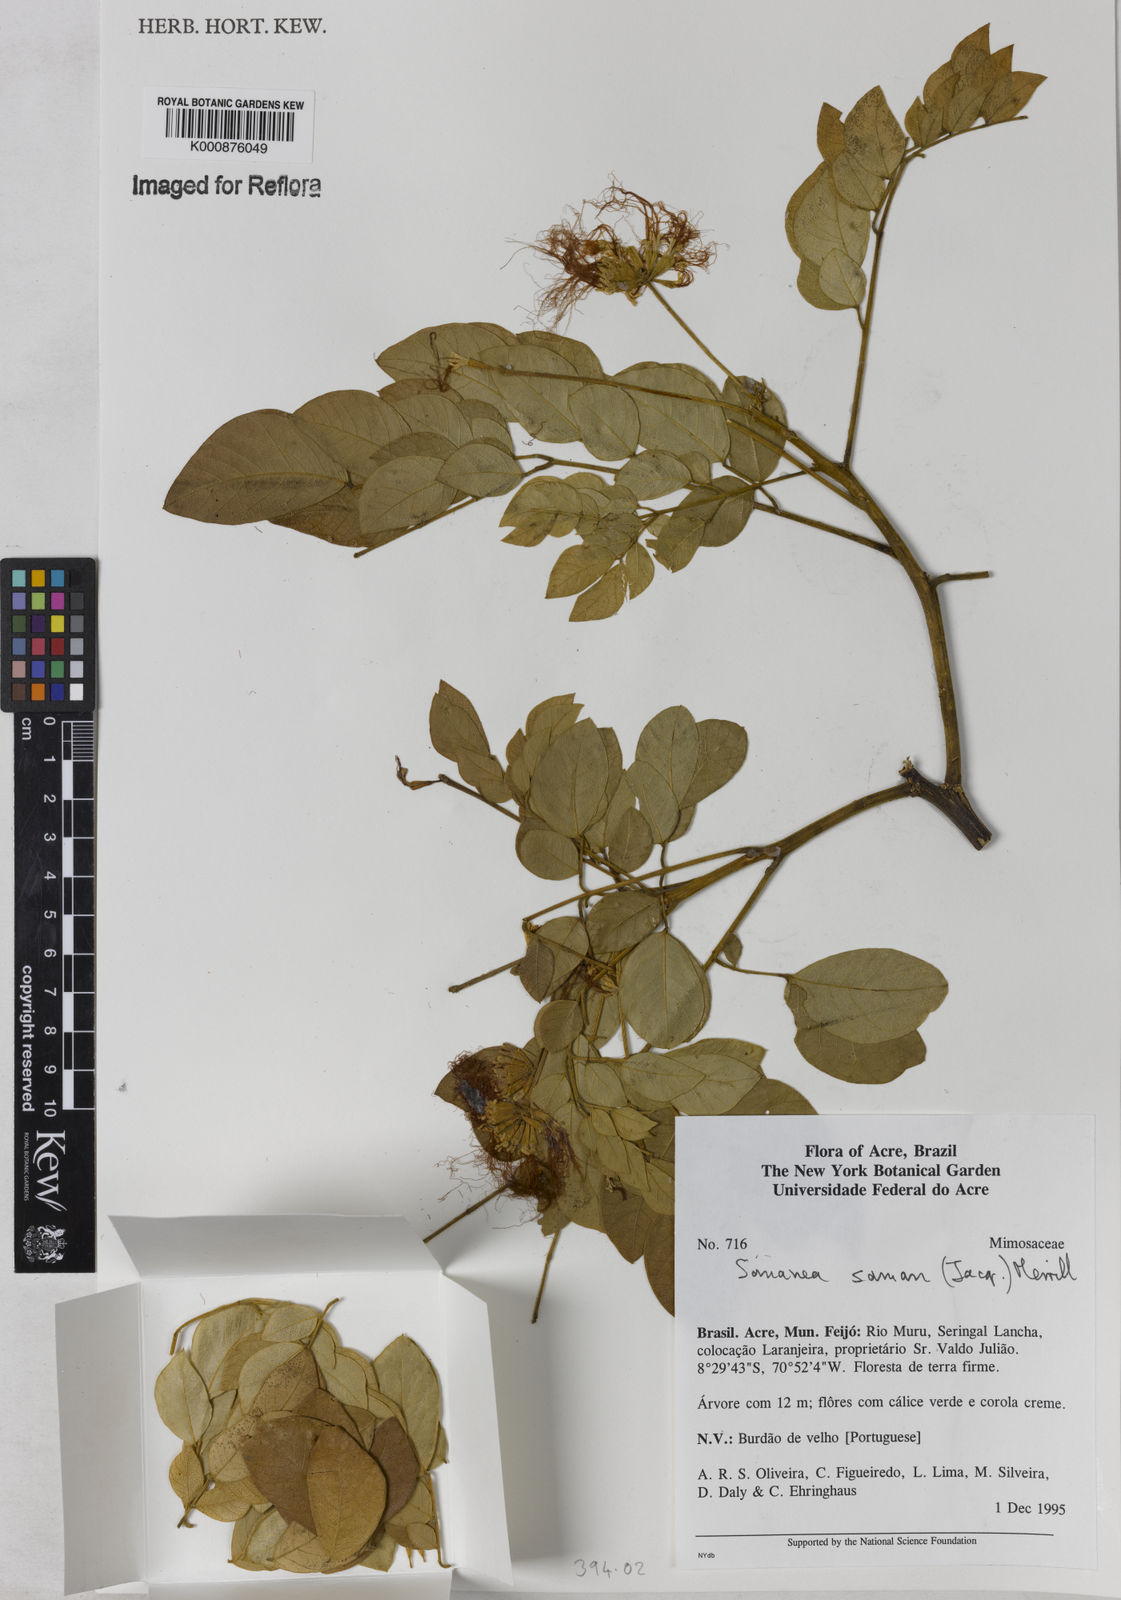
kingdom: Plantae
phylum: Tracheophyta
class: Magnoliopsida
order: Fabales
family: Fabaceae
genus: Samanea
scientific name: Samanea saman
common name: Raintree
